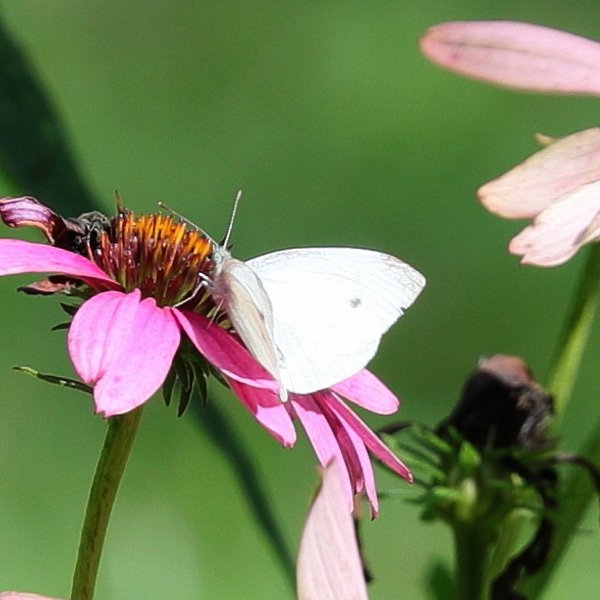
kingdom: Animalia
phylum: Arthropoda
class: Insecta
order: Lepidoptera
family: Pieridae
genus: Pieris
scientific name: Pieris rapae
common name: Cabbage White
